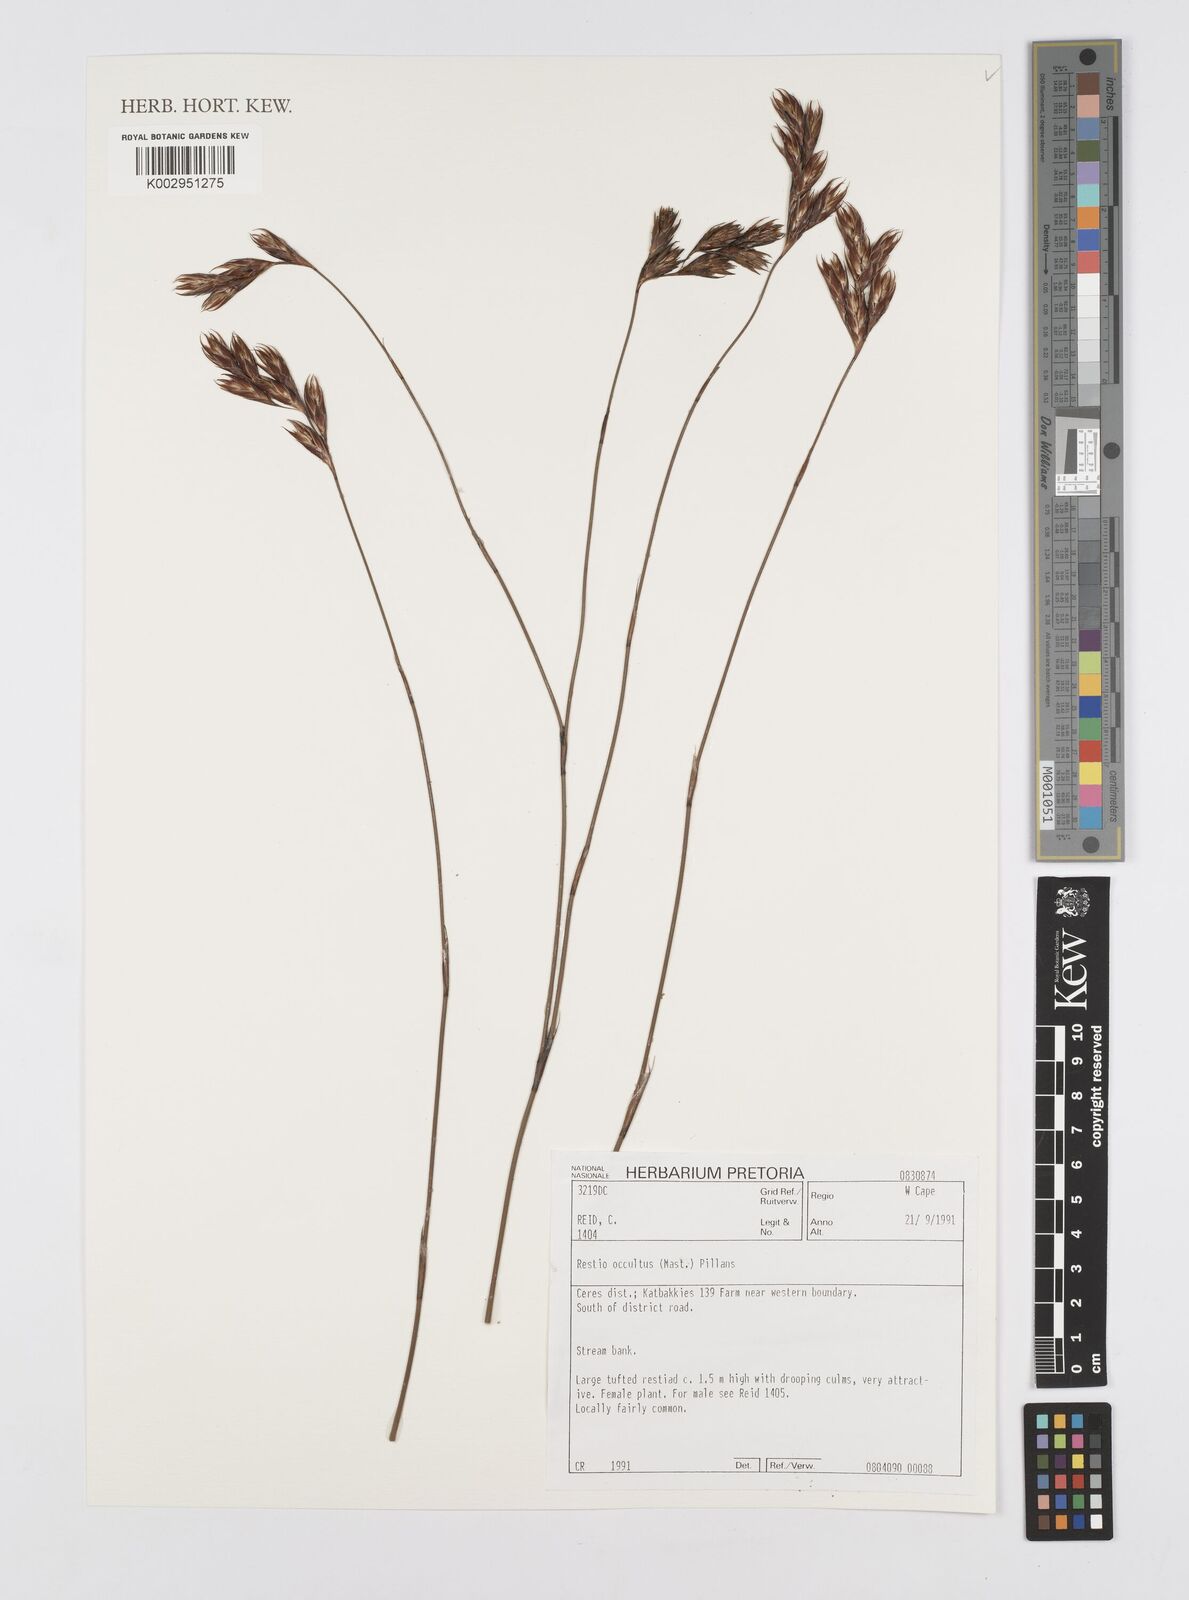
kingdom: Plantae
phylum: Tracheophyta
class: Liliopsida
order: Poales
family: Restionaceae
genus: Restio
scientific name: Restio occultus
